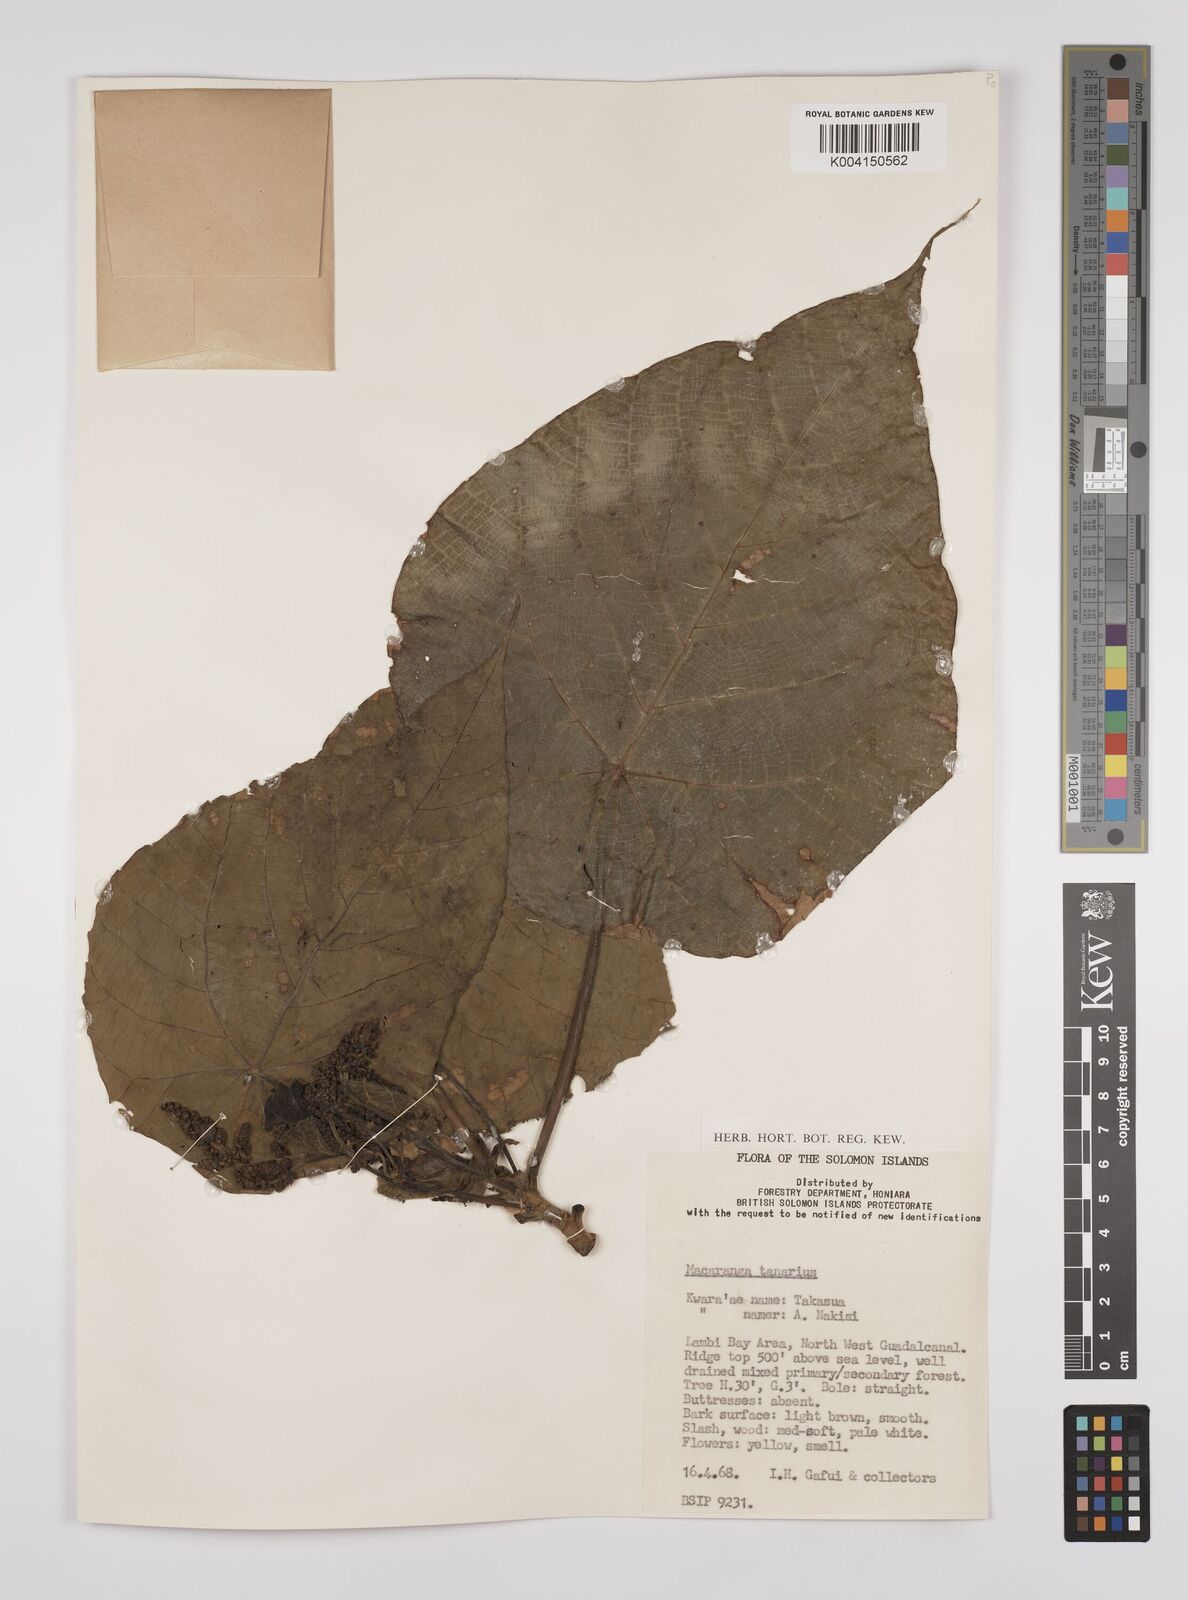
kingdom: Plantae
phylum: Tracheophyta
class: Magnoliopsida
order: Malpighiales
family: Euphorbiaceae
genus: Macaranga
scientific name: Macaranga tanarius
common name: Parasol leaf tree
